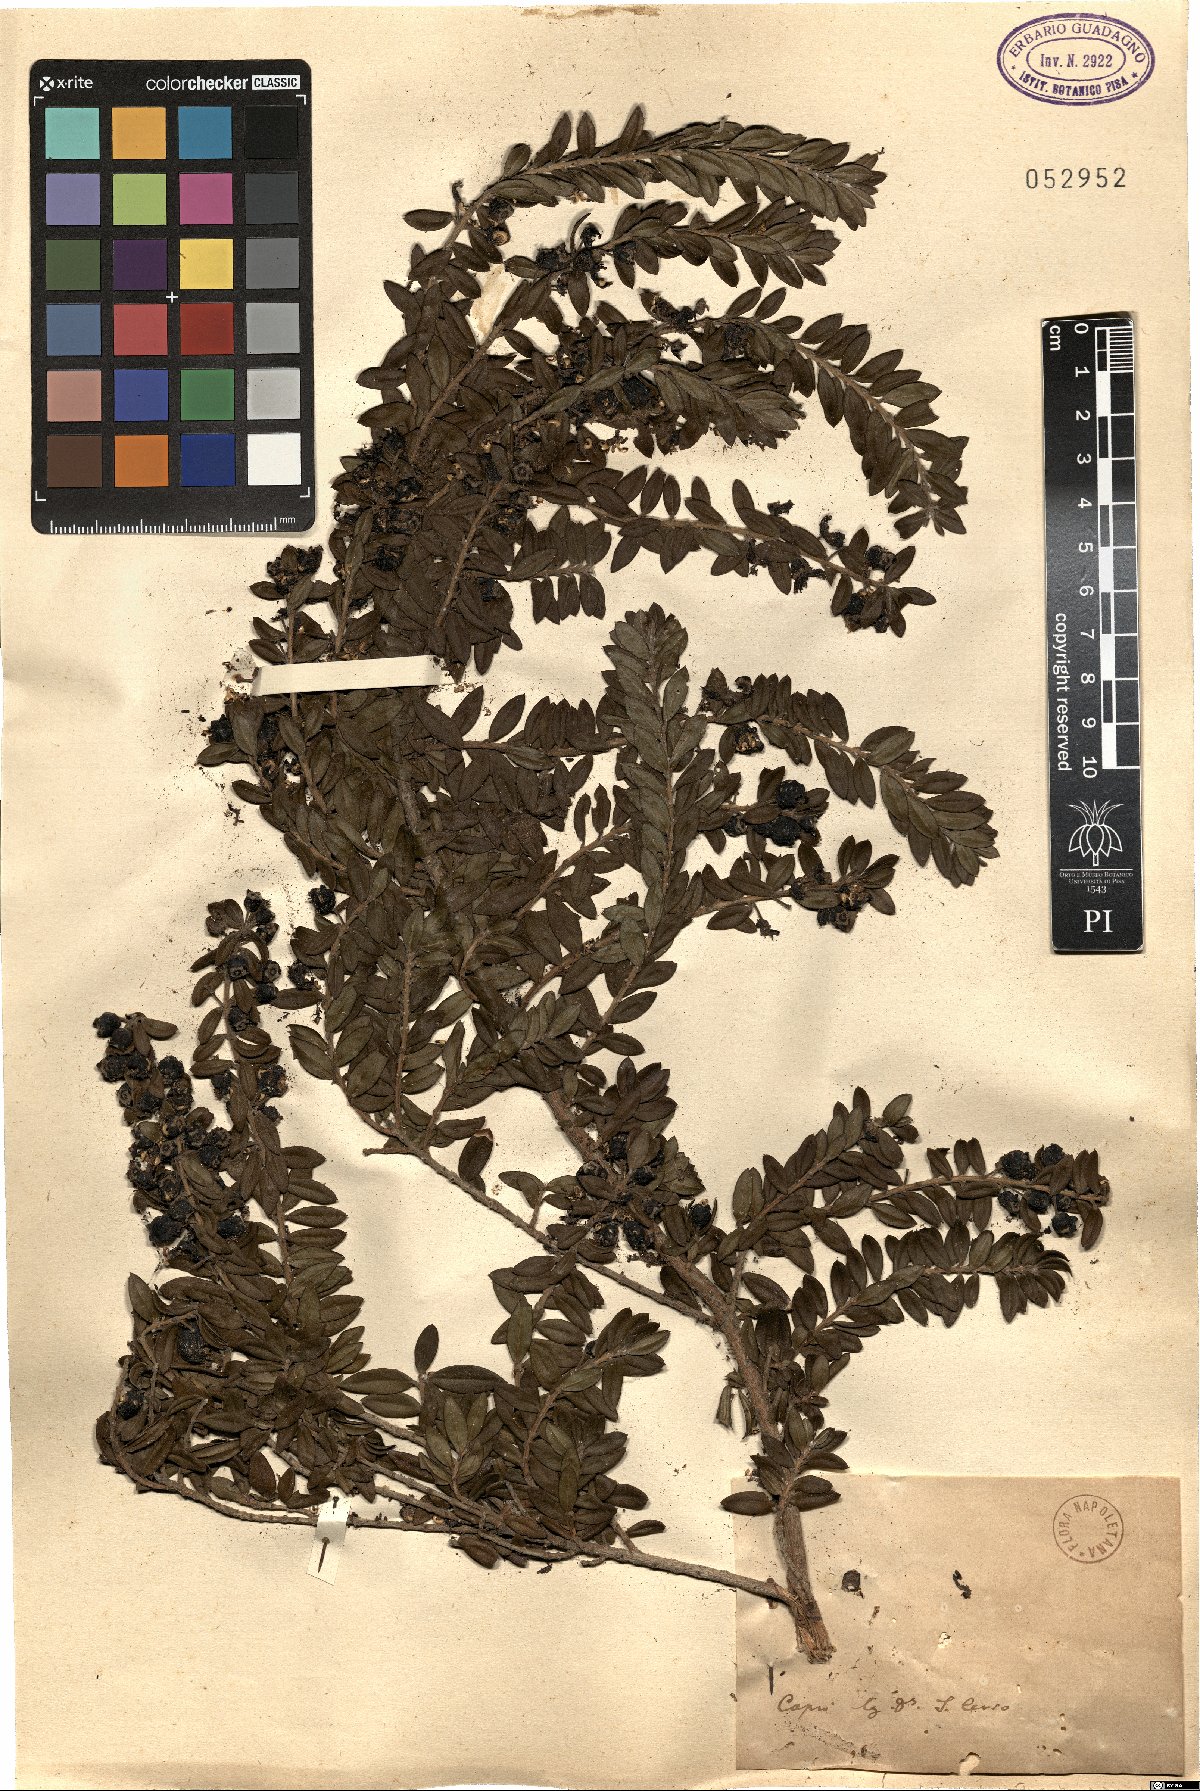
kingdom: Plantae
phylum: Tracheophyta
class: Magnoliopsida
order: Myrtales
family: Myrtaceae
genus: Myrtus
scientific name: Myrtus
